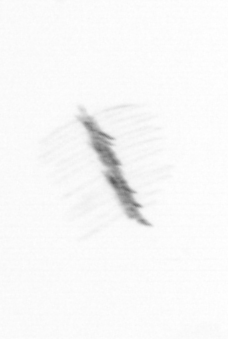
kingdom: Chromista
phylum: Ochrophyta
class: Bacillariophyceae
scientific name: Bacillariophyceae
